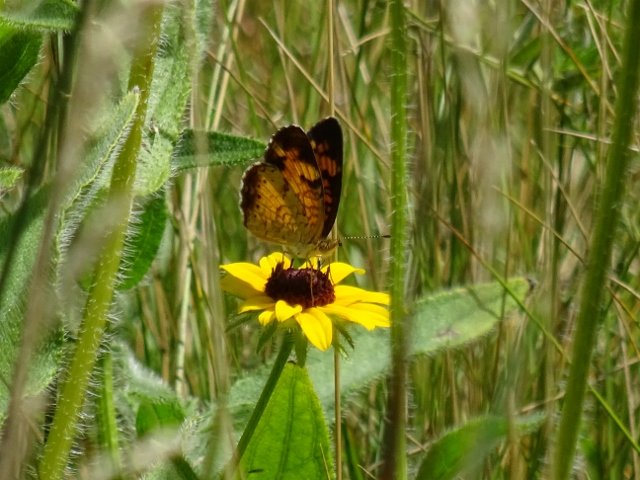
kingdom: Animalia
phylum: Arthropoda
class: Insecta
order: Lepidoptera
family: Nymphalidae
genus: Phyciodes
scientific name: Phyciodes tharos
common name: Pearl Crescent
